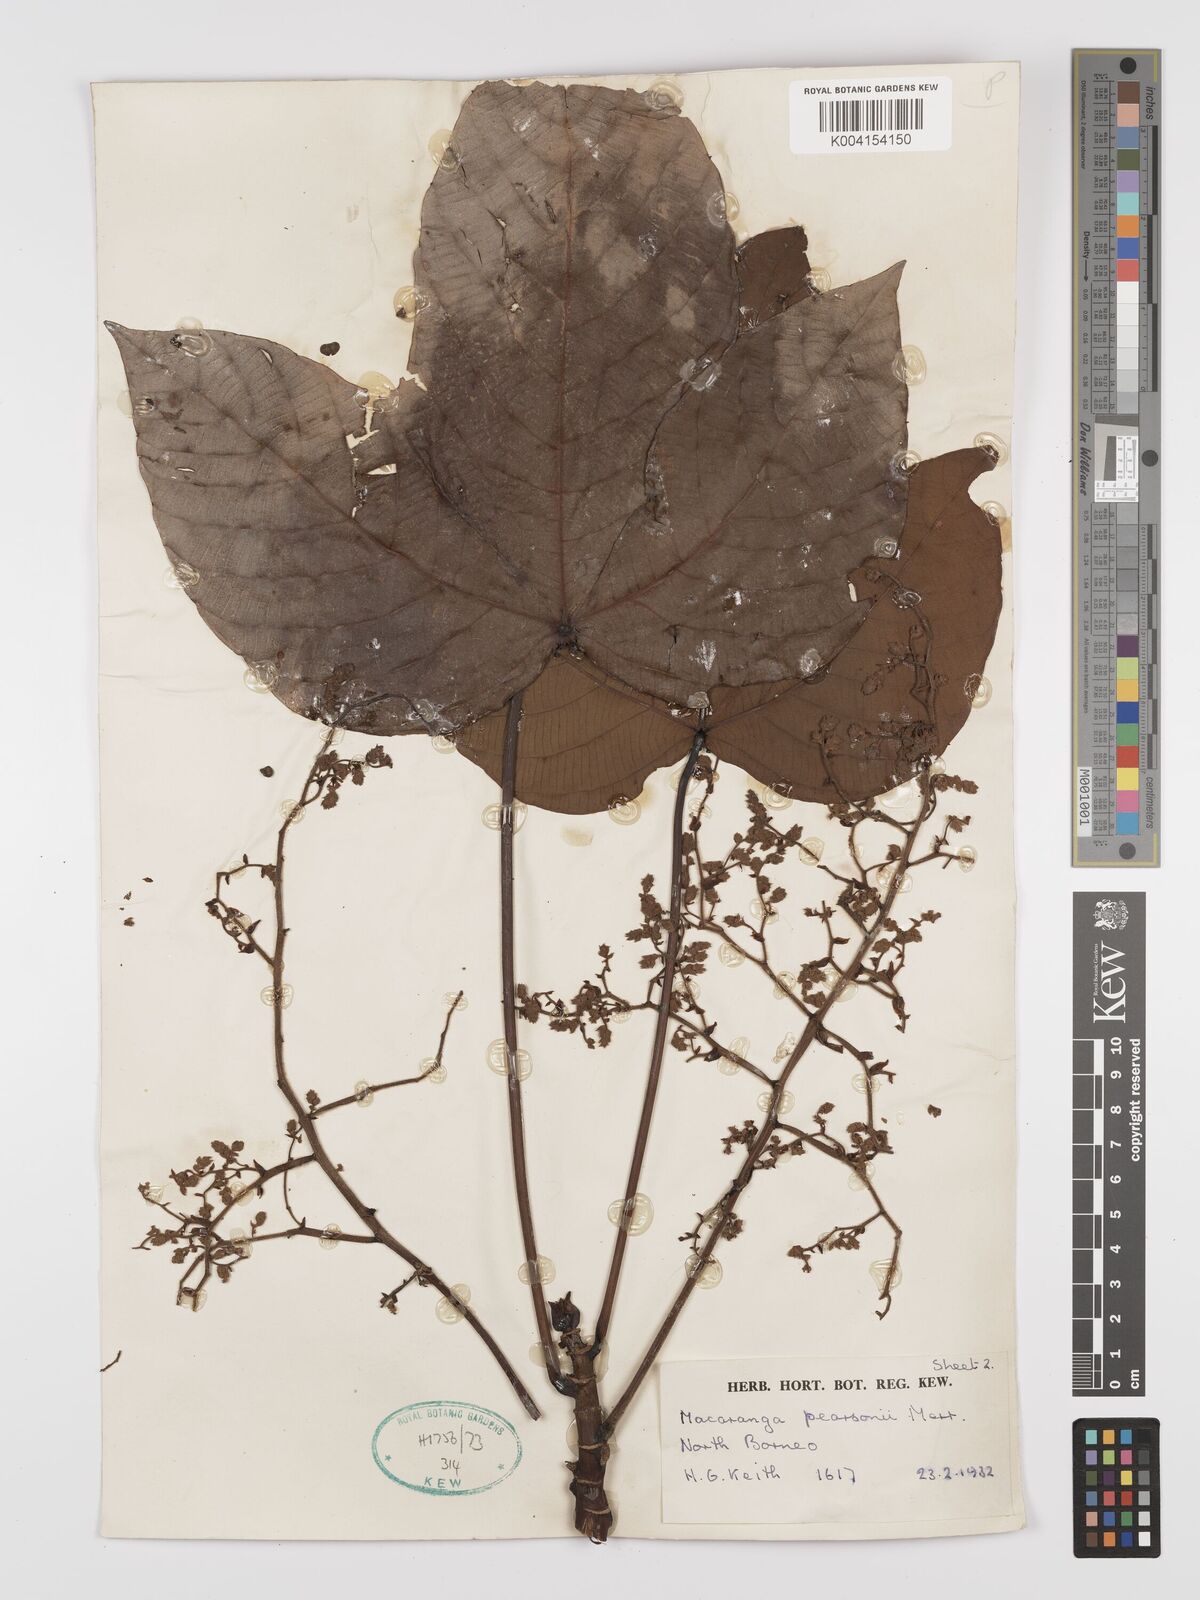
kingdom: Plantae
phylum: Tracheophyta
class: Magnoliopsida
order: Malpighiales
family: Euphorbiaceae
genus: Macaranga
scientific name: Macaranga pearsonii
